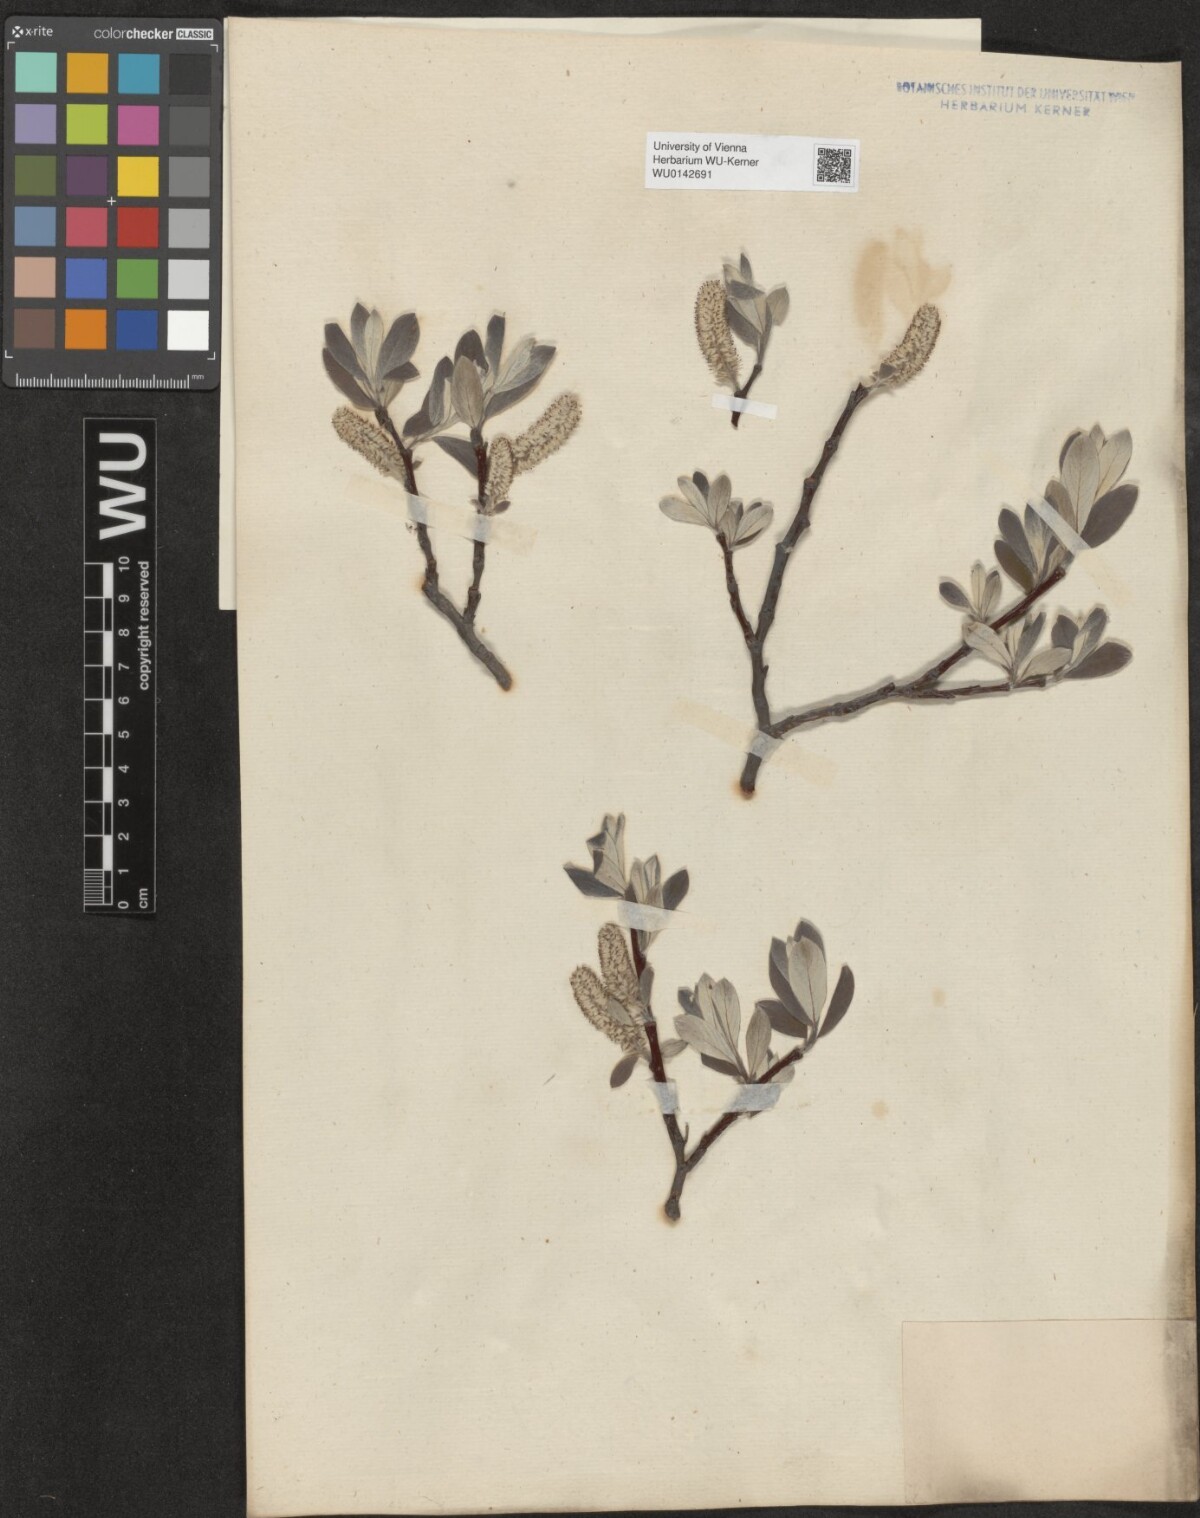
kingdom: Plantae
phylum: Tracheophyta
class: Magnoliopsida
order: Malpighiales
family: Salicaceae
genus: Salix
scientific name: Salix helvetica
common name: Swiss willow
